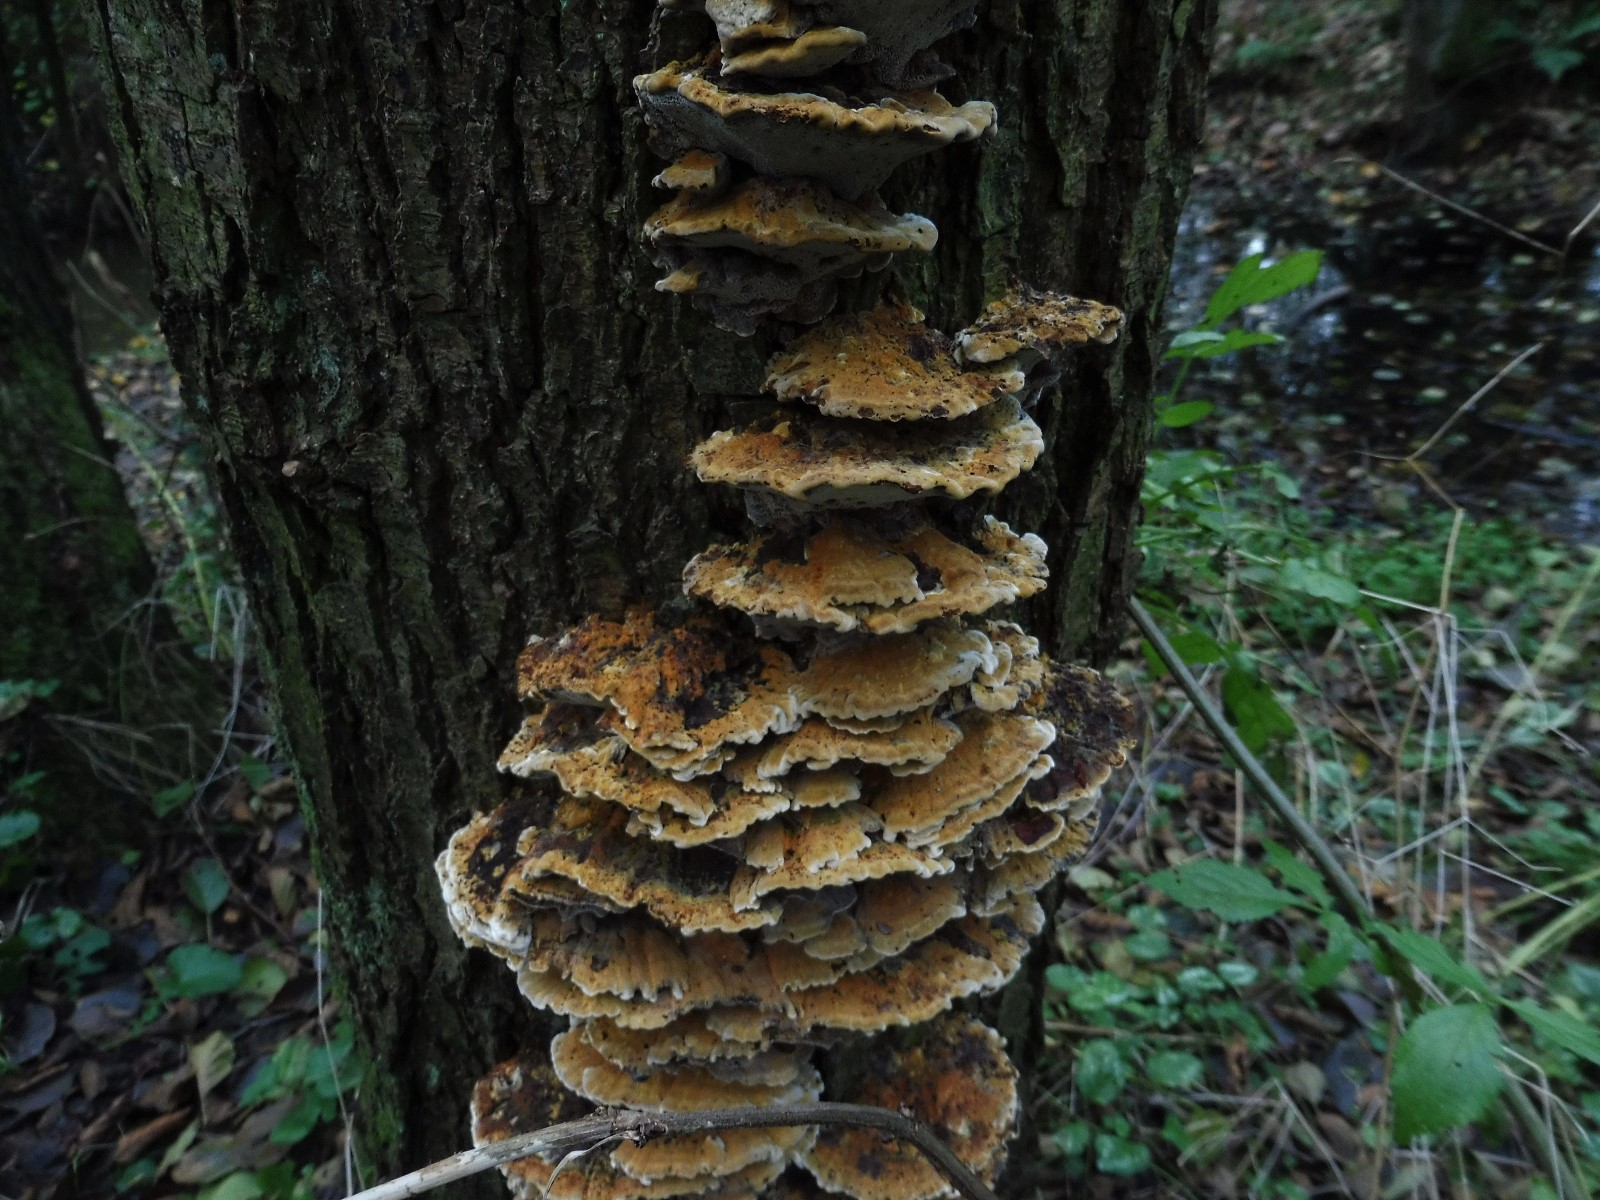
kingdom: Fungi
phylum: Basidiomycota
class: Agaricomycetes
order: Hymenochaetales
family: Hymenochaetaceae
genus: Xanthoporia
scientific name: Xanthoporia radiata
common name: elle-spejlporesvamp
